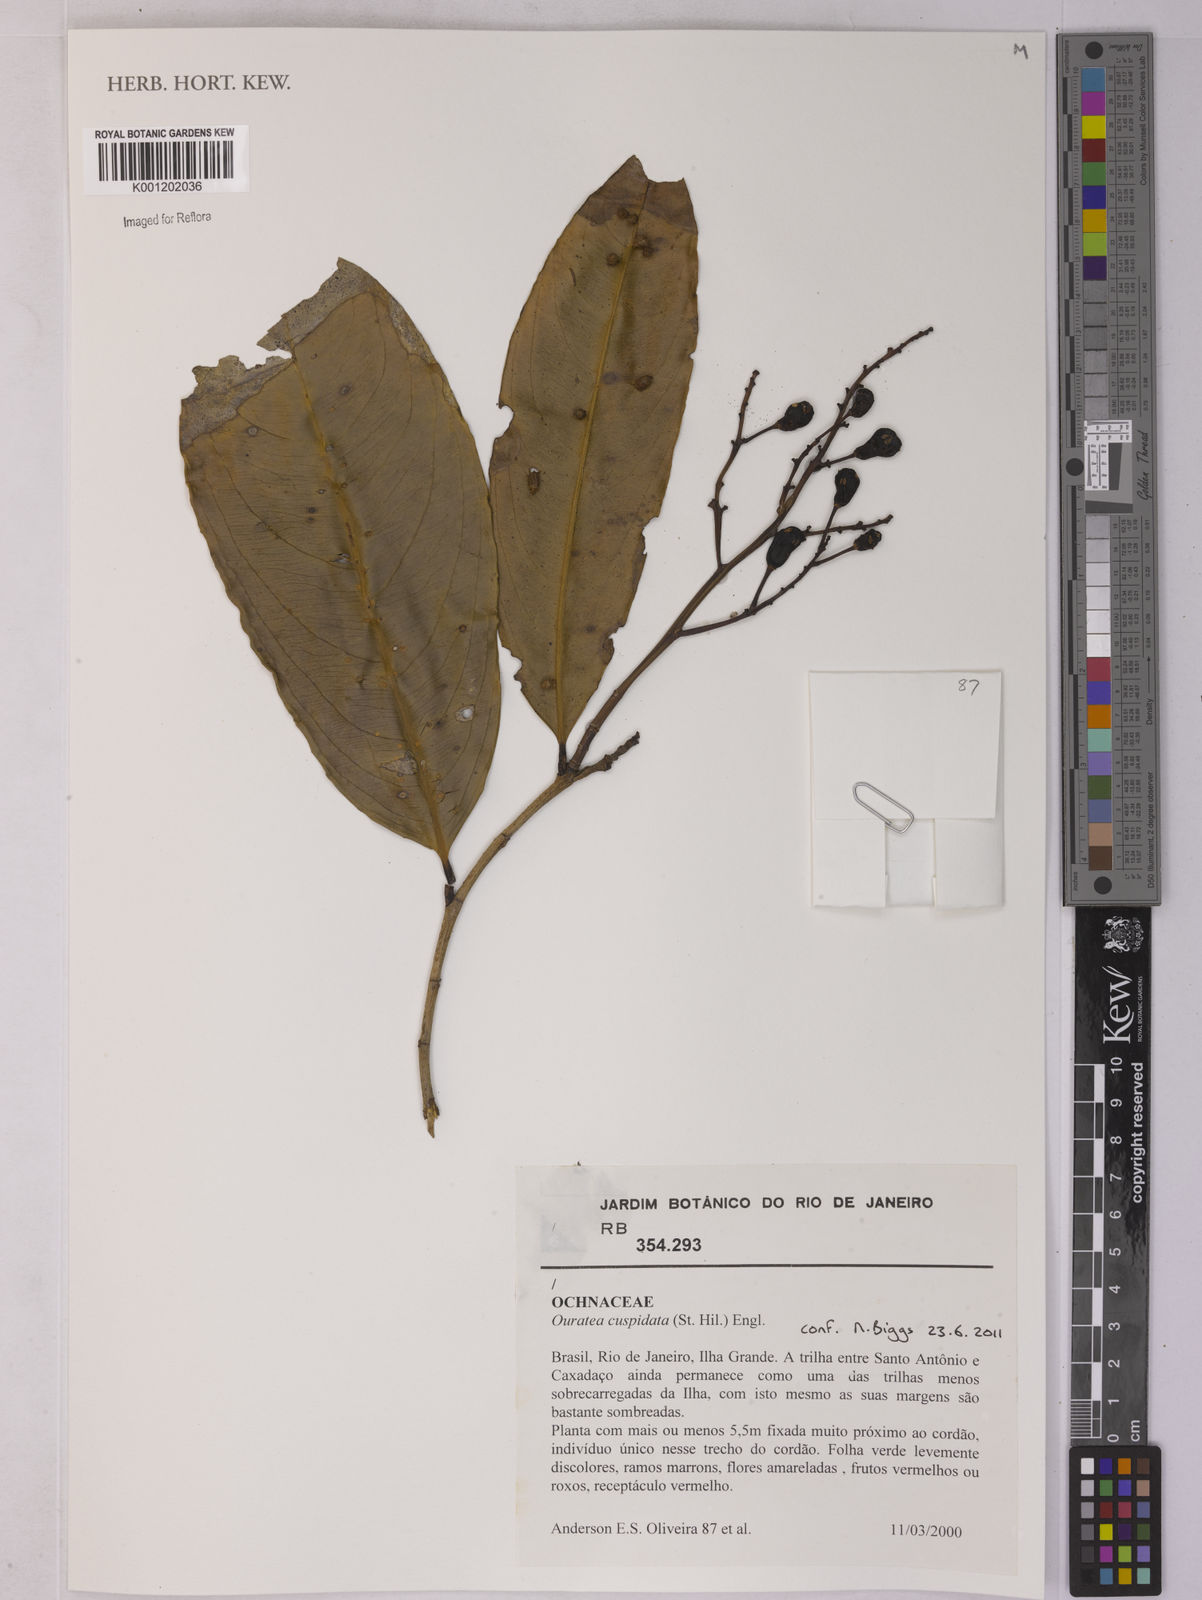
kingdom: Plantae
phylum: Tracheophyta
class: Magnoliopsida
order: Malpighiales
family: Ochnaceae
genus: Ouratea
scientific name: Ouratea cuspidata
